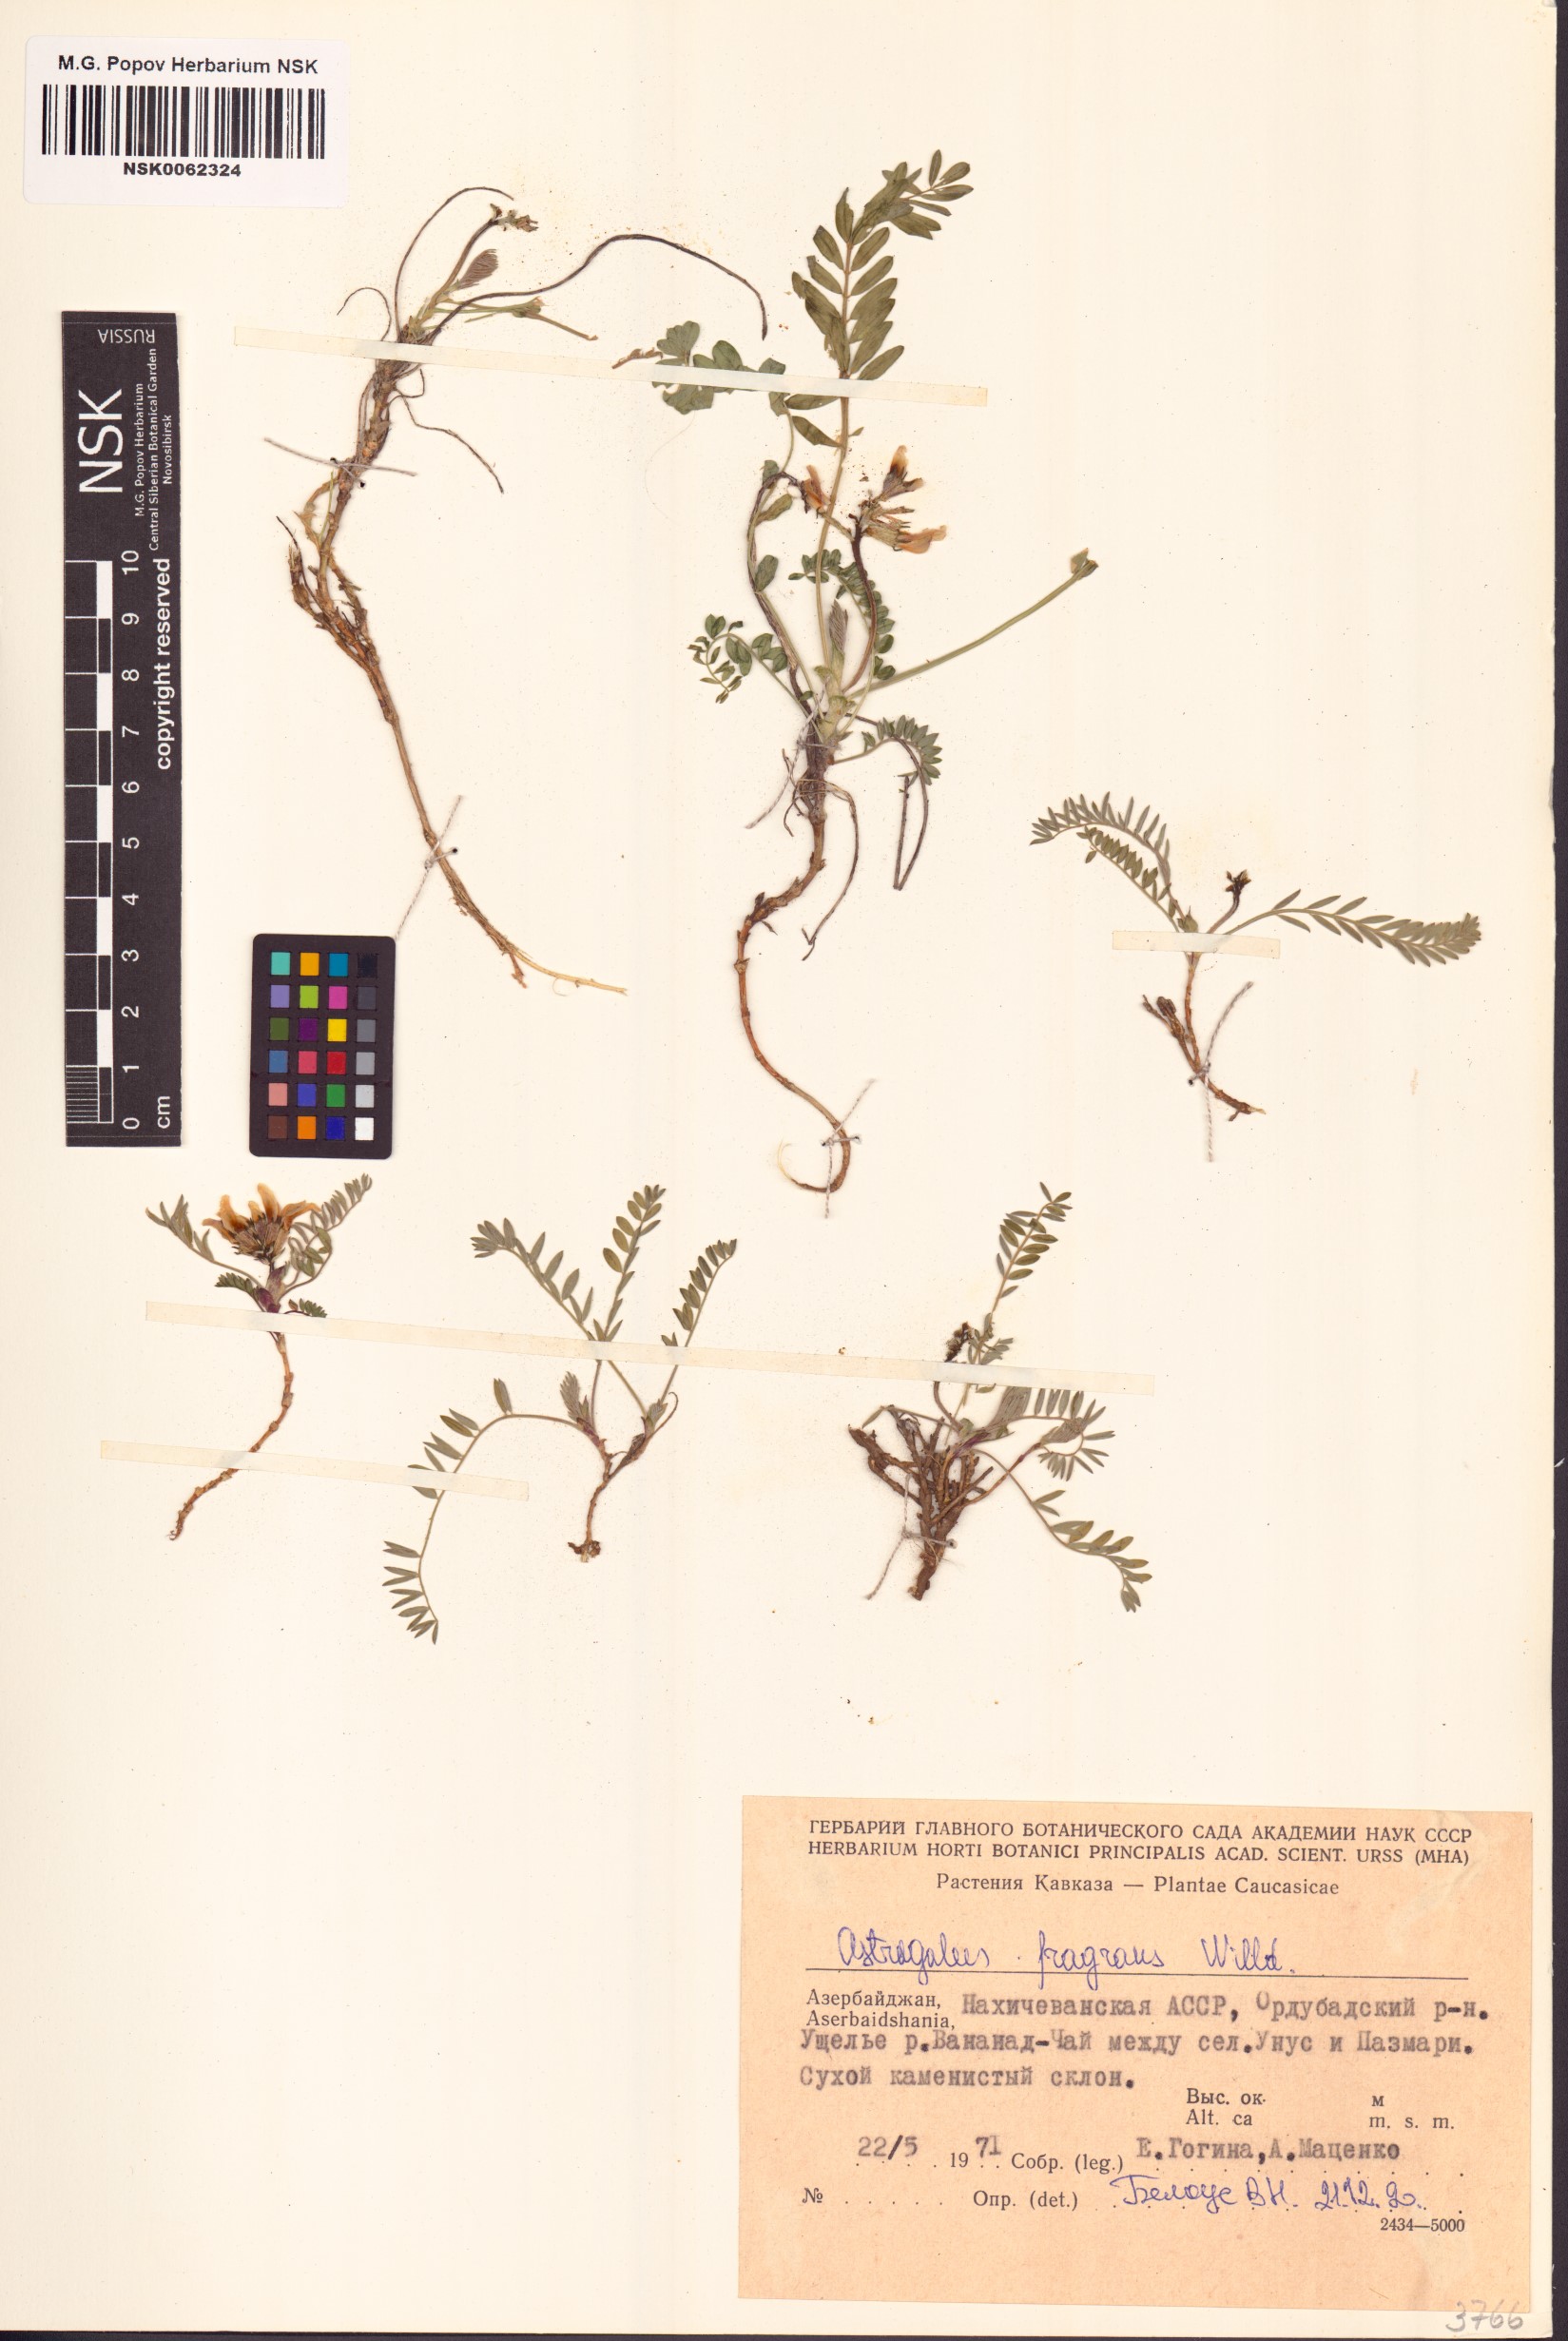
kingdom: Plantae
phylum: Tracheophyta
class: Magnoliopsida
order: Fabales
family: Fabaceae
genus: Astragalus
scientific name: Astragalus fragrans
